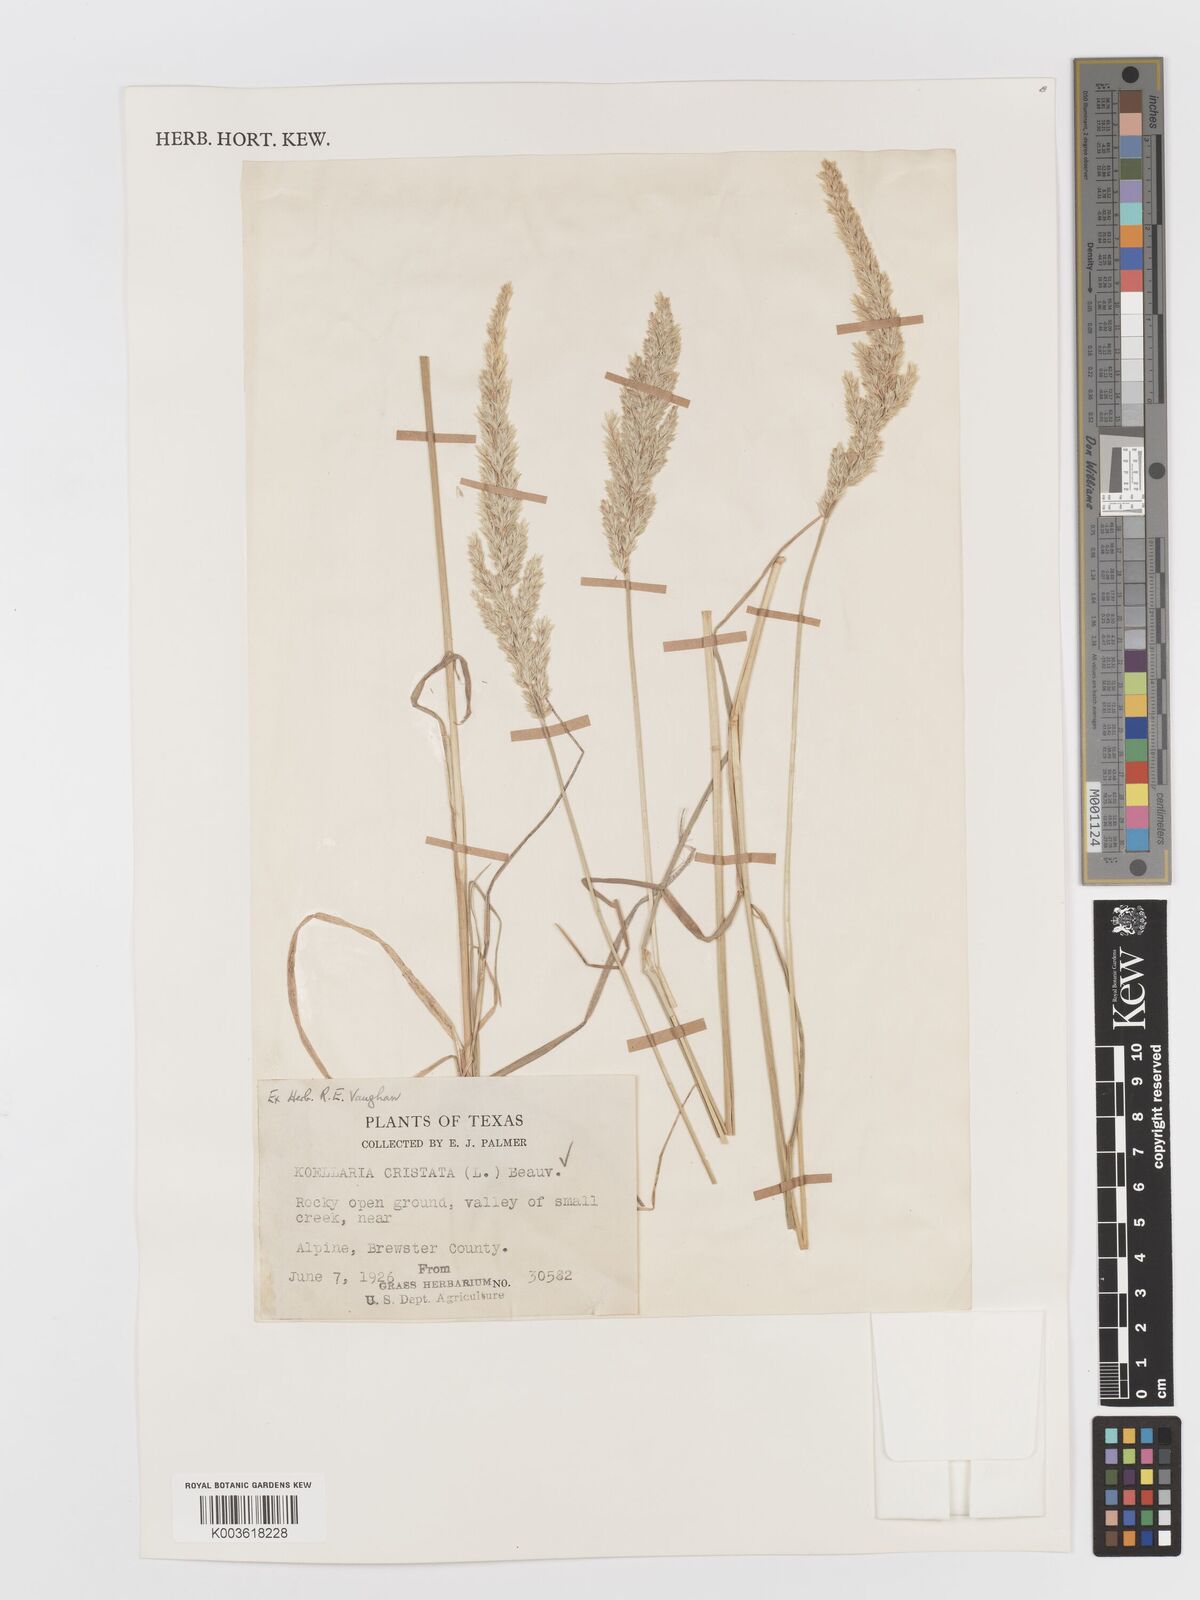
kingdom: Plantae
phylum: Tracheophyta
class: Liliopsida
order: Poales
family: Poaceae
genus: Koeleria
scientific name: Koeleria macrantha
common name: Crested hair-grass
